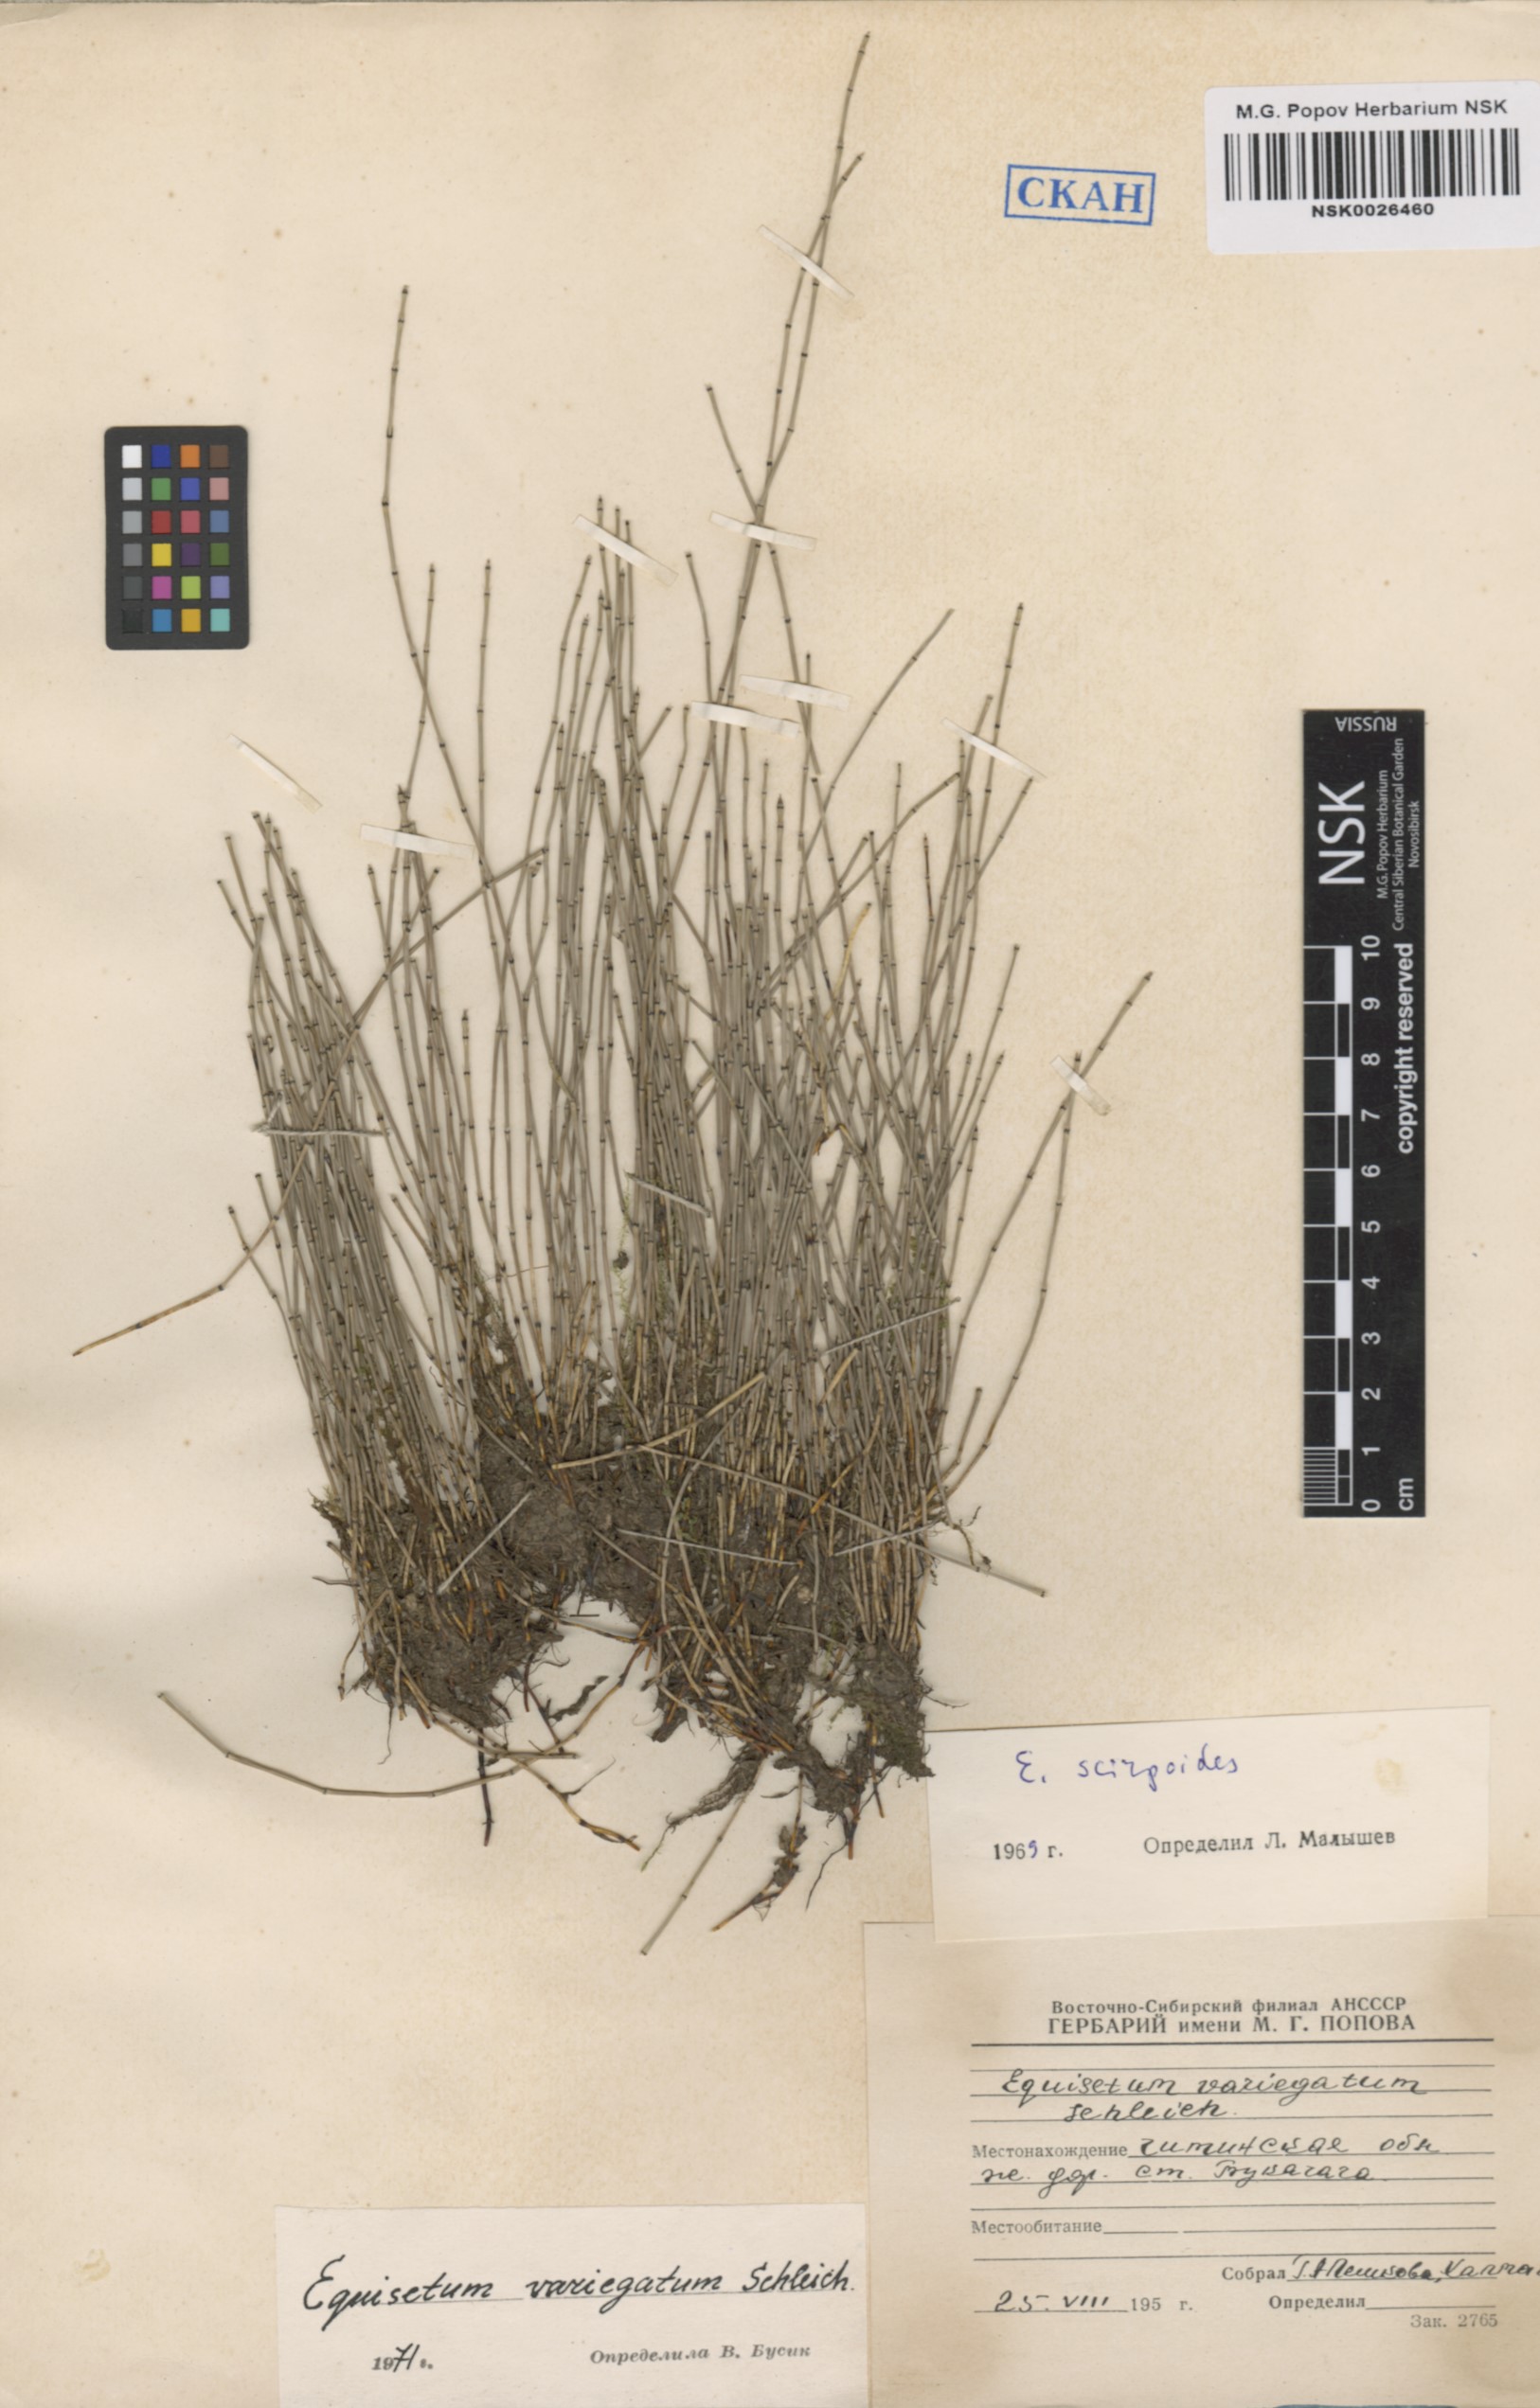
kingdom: Plantae
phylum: Tracheophyta
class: Polypodiopsida
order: Equisetales
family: Equisetaceae
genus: Equisetum
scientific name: Equisetum variegatum
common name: Variegated horsetail
